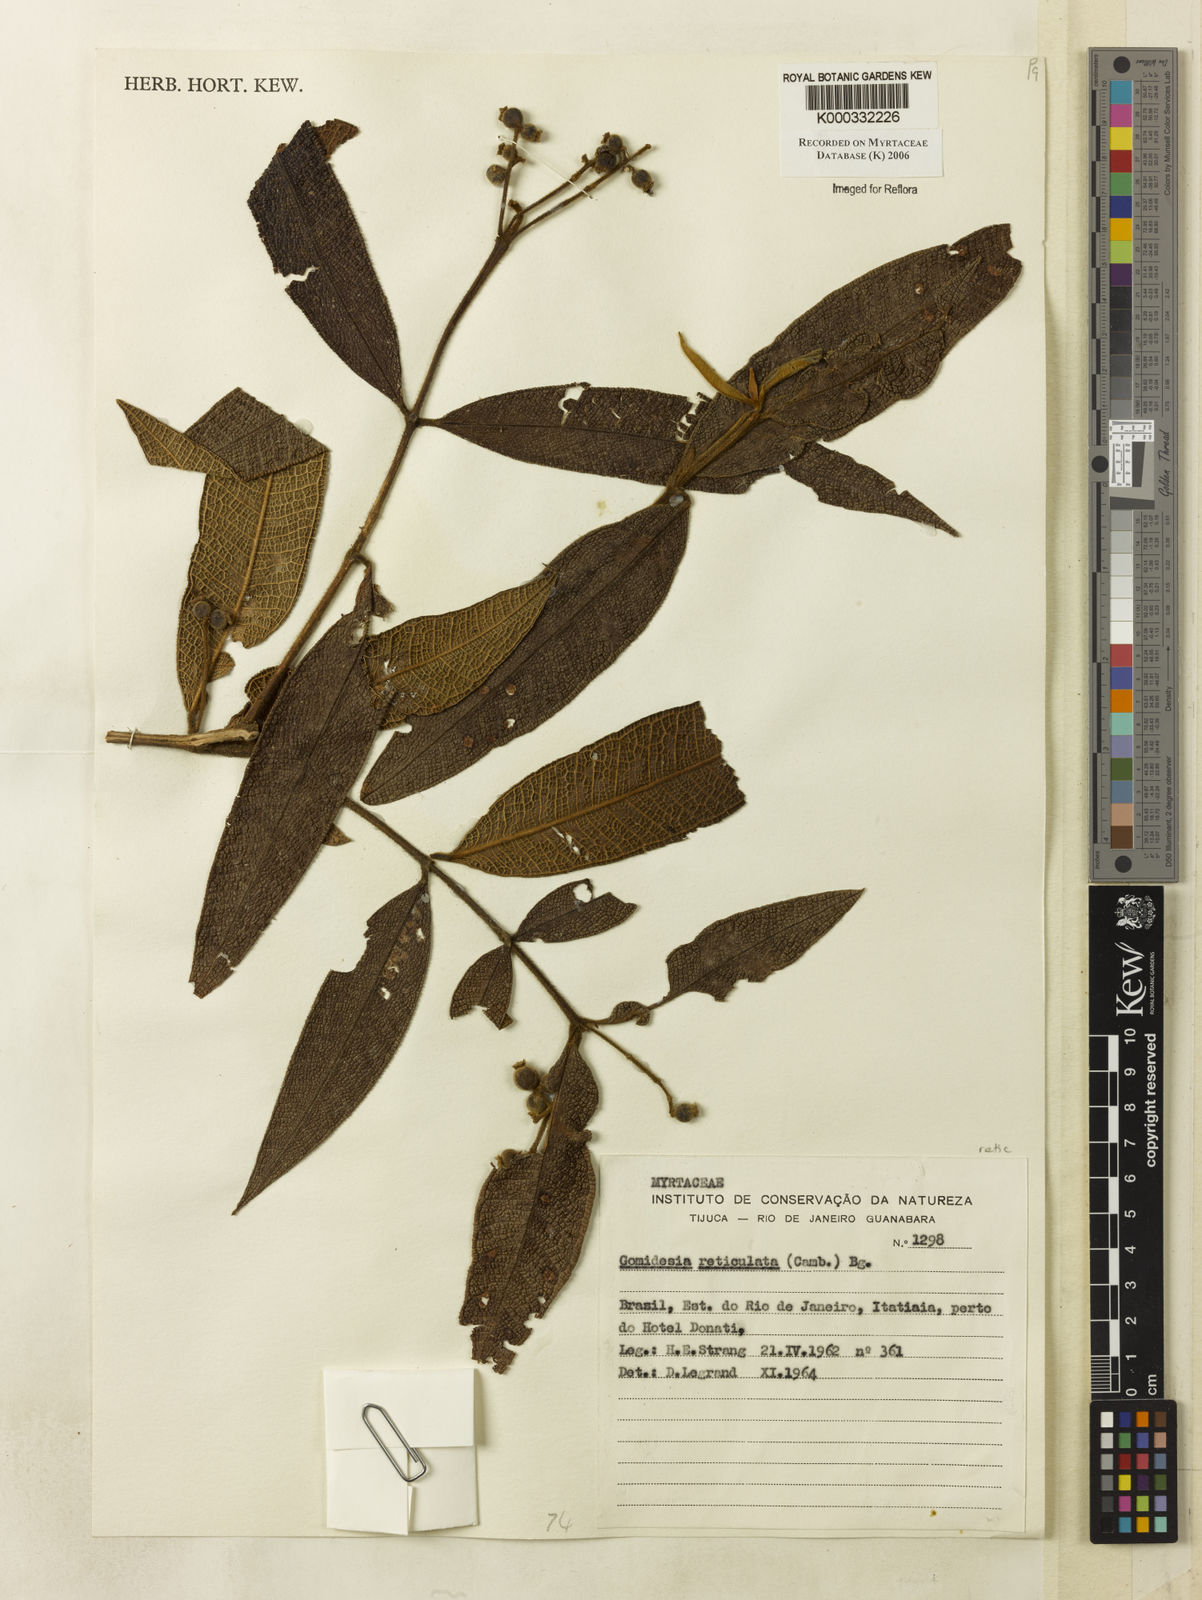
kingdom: Plantae
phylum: Tracheophyta
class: Magnoliopsida
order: Myrtales
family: Myrtaceae
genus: Myrcia
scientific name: Myrcia reticulata
